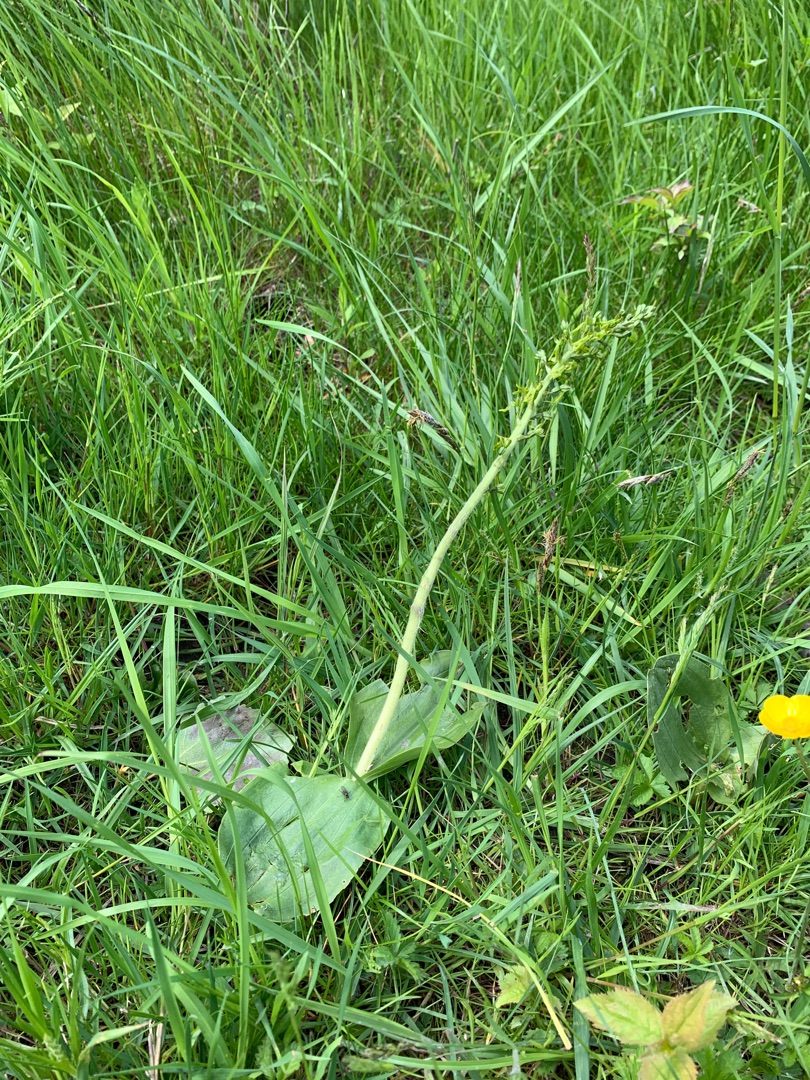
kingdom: Plantae
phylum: Tracheophyta
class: Liliopsida
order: Asparagales
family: Orchidaceae
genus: Neottia
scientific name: Neottia ovata
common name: Ægbladet fliglæbe
